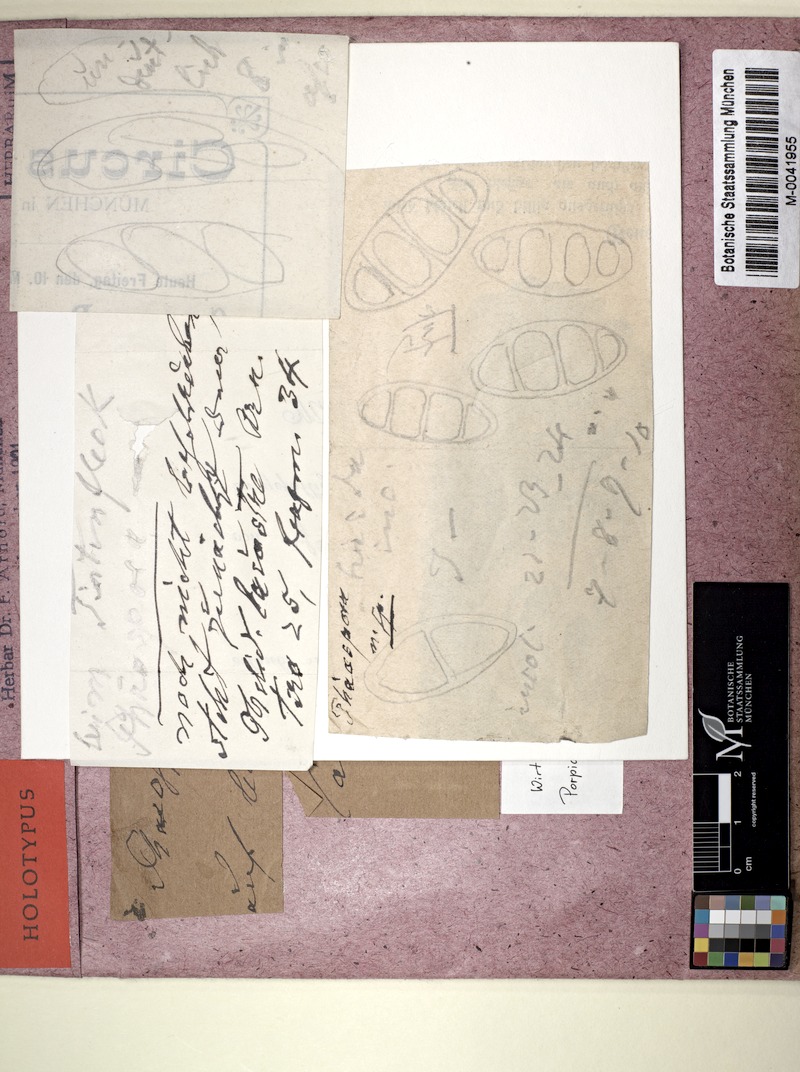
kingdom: Fungi
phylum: Ascomycota
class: Eurotiomycetes
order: Sclerococcales
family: Sclerococcaceae
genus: Sclerococcum
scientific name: Sclerococcum australe
